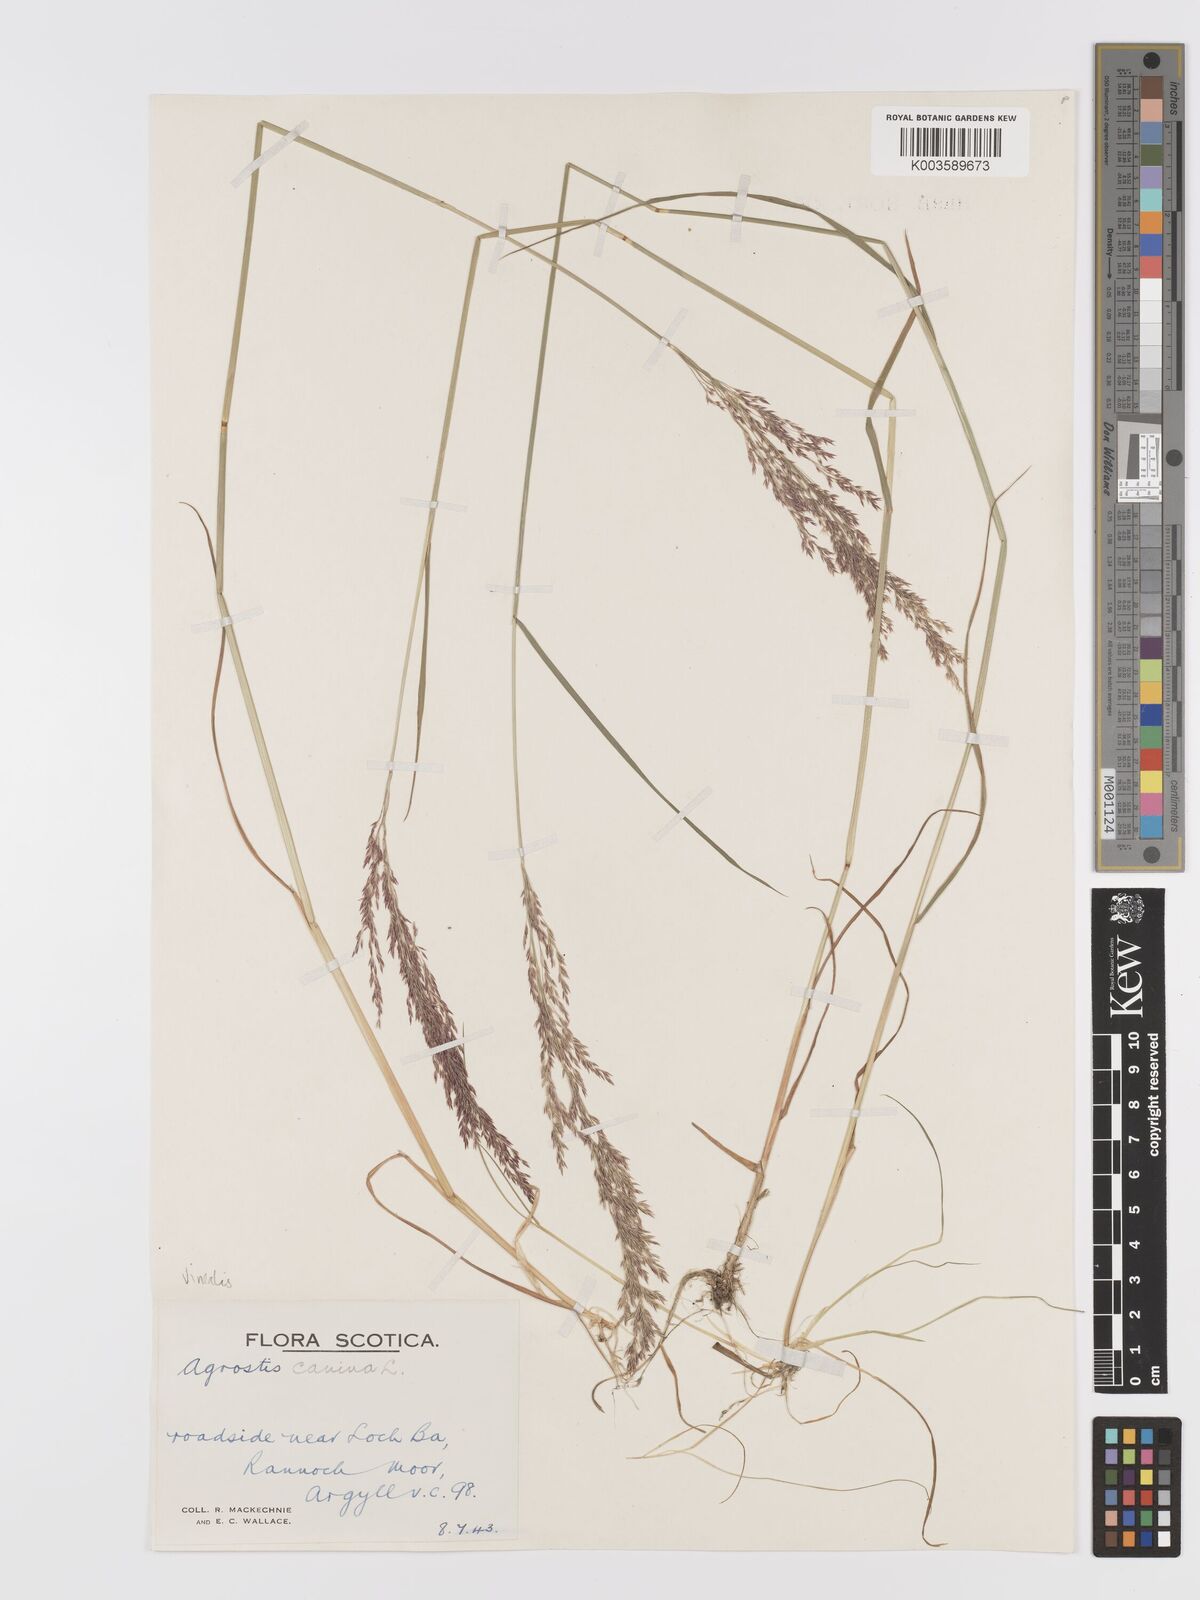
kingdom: Plantae
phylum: Tracheophyta
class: Liliopsida
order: Poales
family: Poaceae
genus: Agrostis
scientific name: Agrostis
